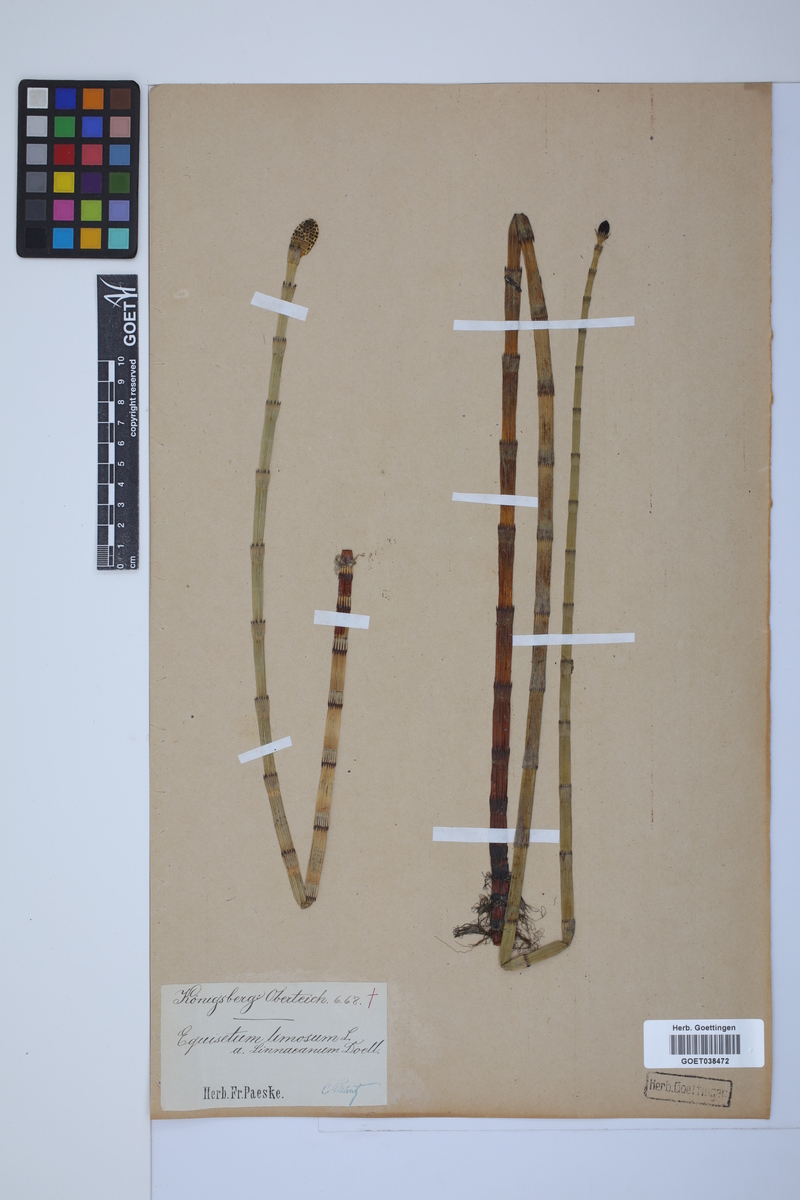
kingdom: Plantae
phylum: Tracheophyta
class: Polypodiopsida
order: Equisetales
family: Equisetaceae
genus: Equisetum
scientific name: Equisetum fluviatile
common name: Water horsetail
